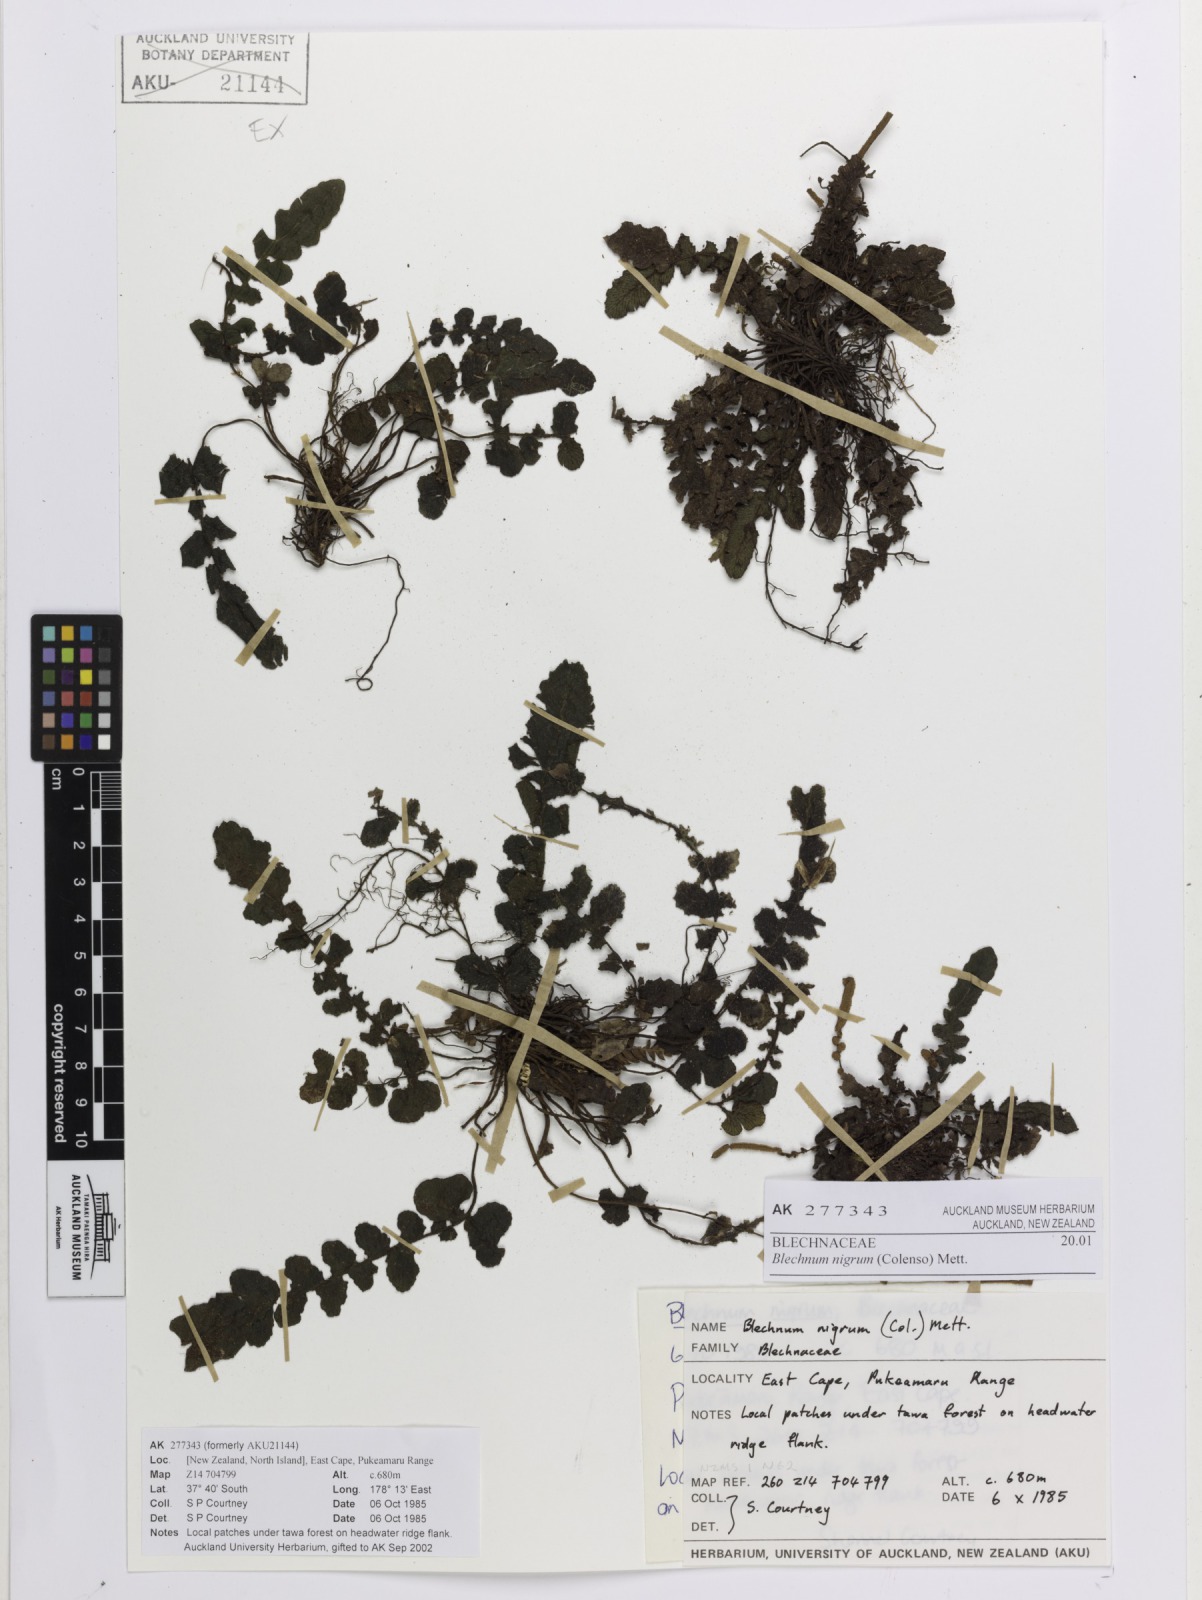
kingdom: Plantae
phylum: Tracheophyta
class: Polypodiopsida
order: Polypodiales
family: Blechnaceae
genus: Cranfillia
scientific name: Cranfillia nigra
